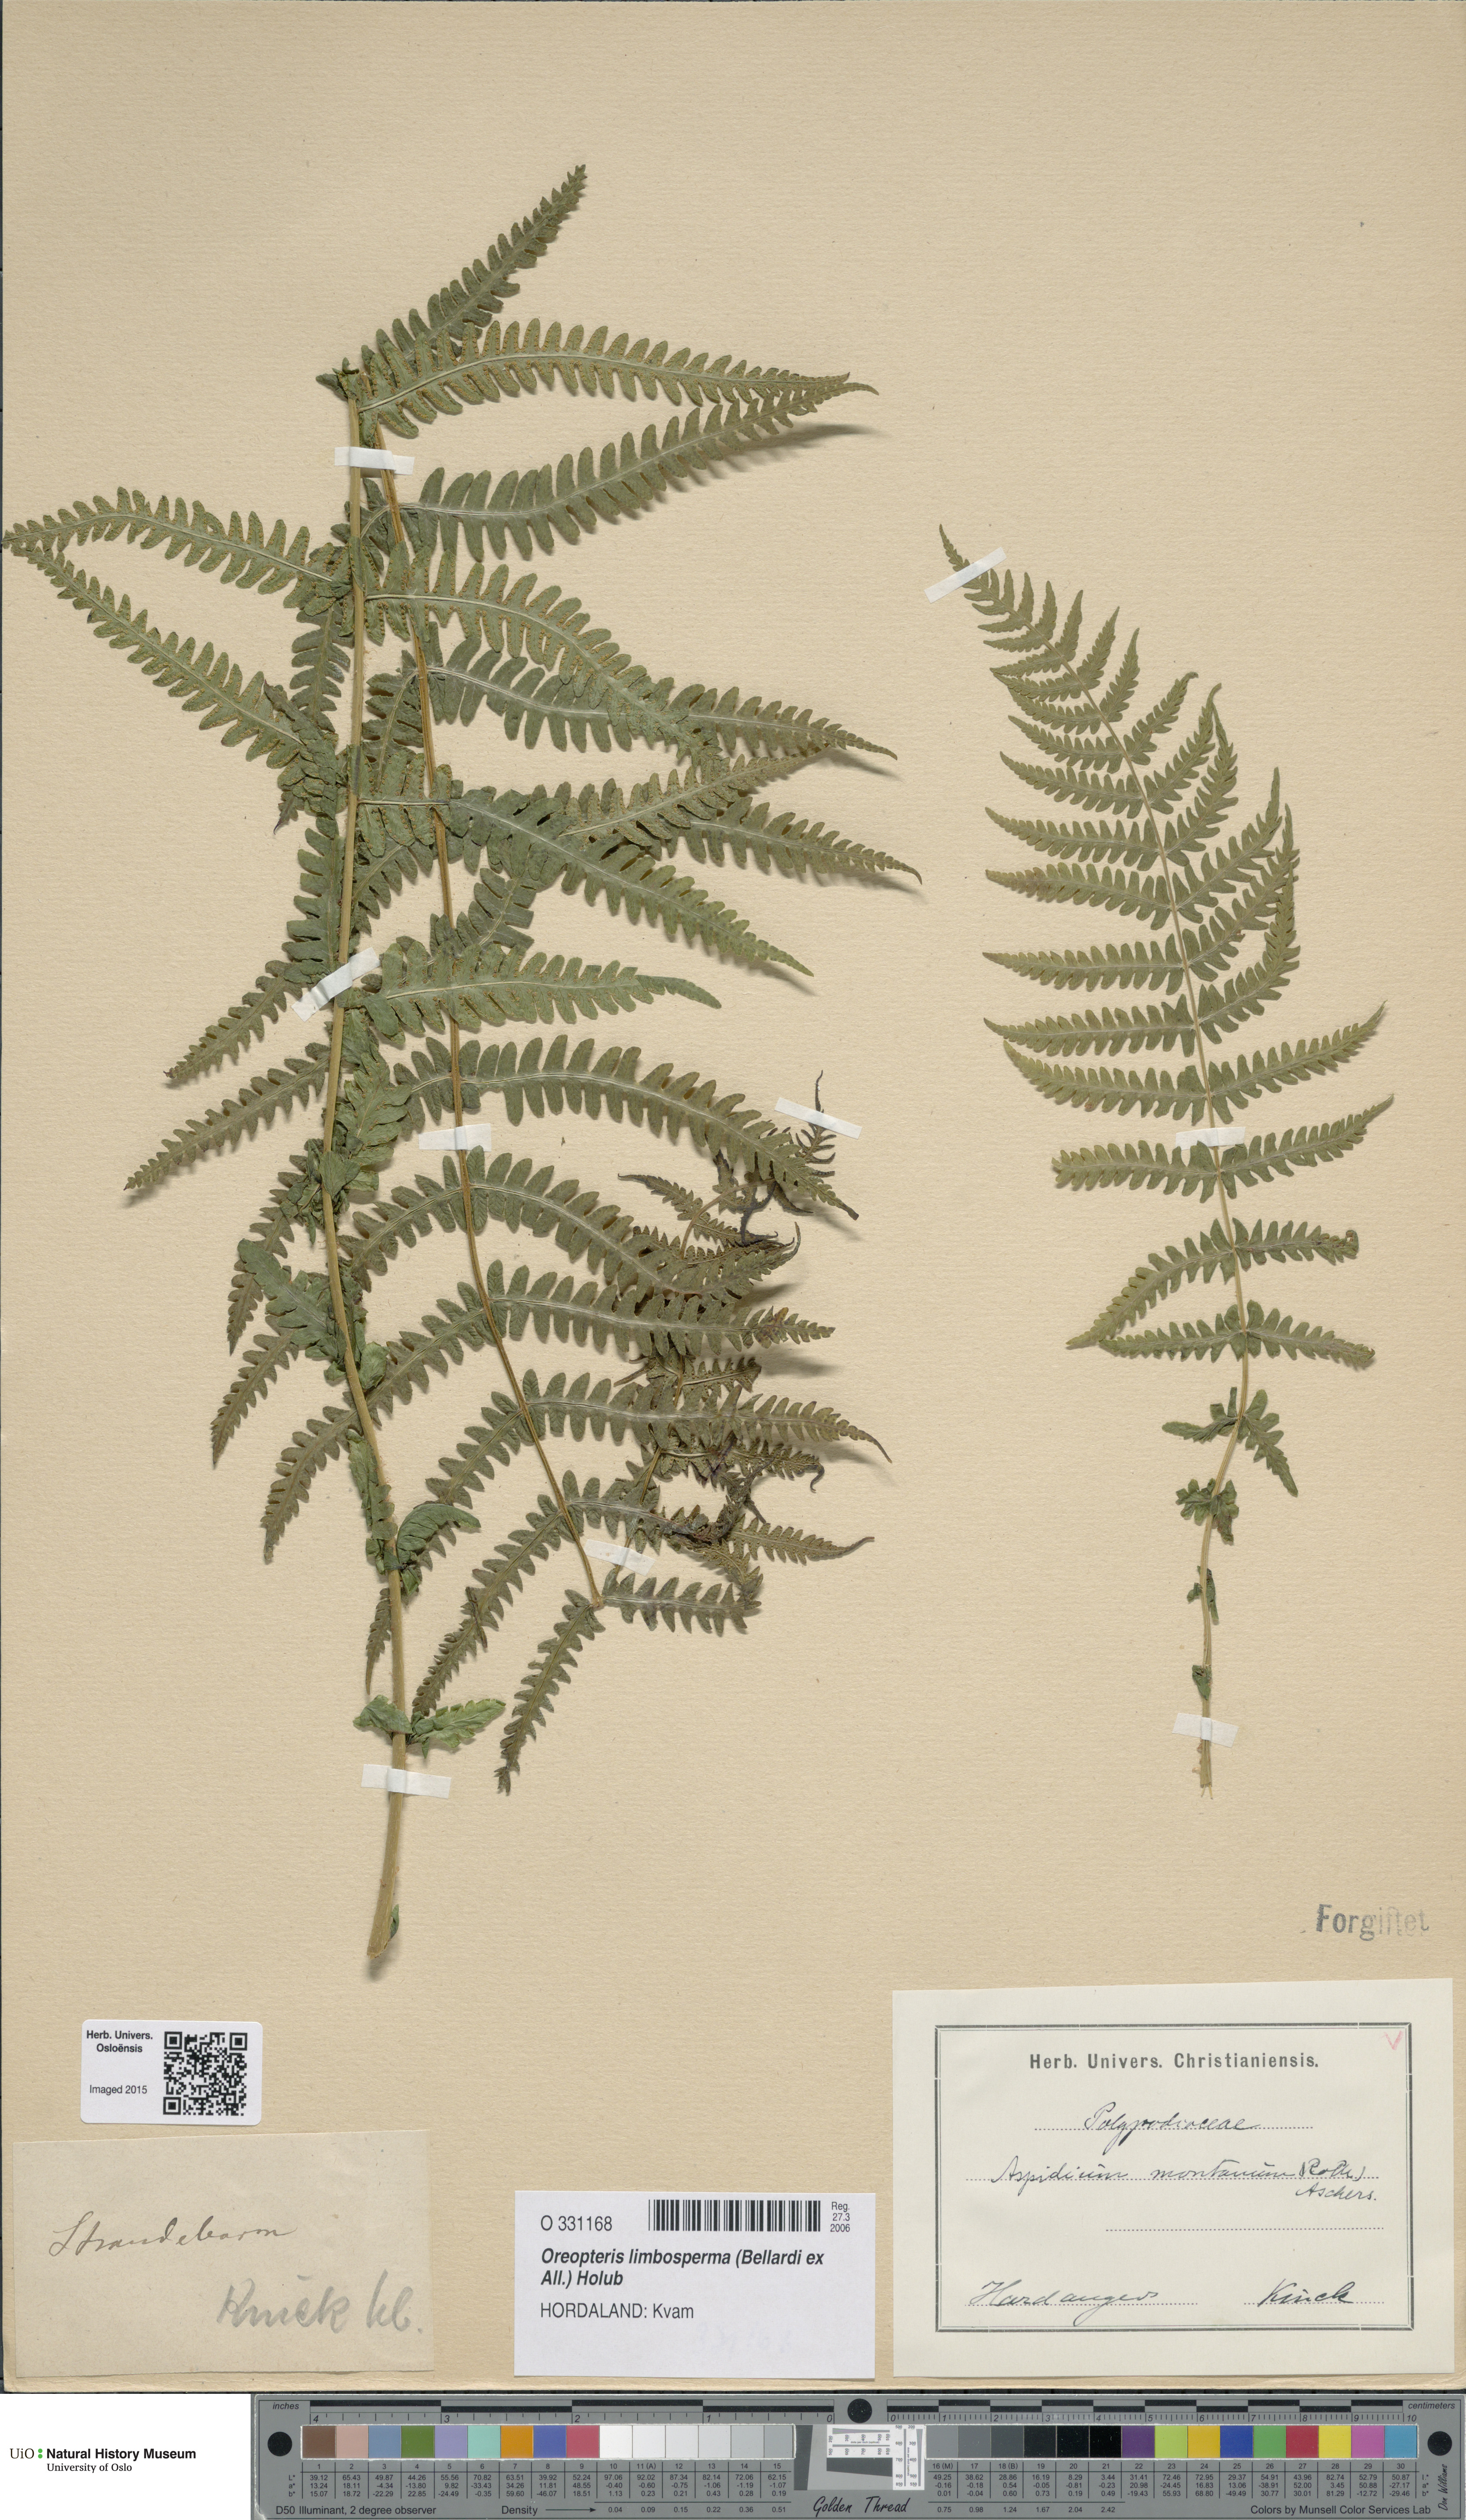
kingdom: Plantae
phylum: Tracheophyta
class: Polypodiopsida
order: Polypodiales
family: Thelypteridaceae
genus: Oreopteris
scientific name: Oreopteris limbosperma
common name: Lemon-scented fern
